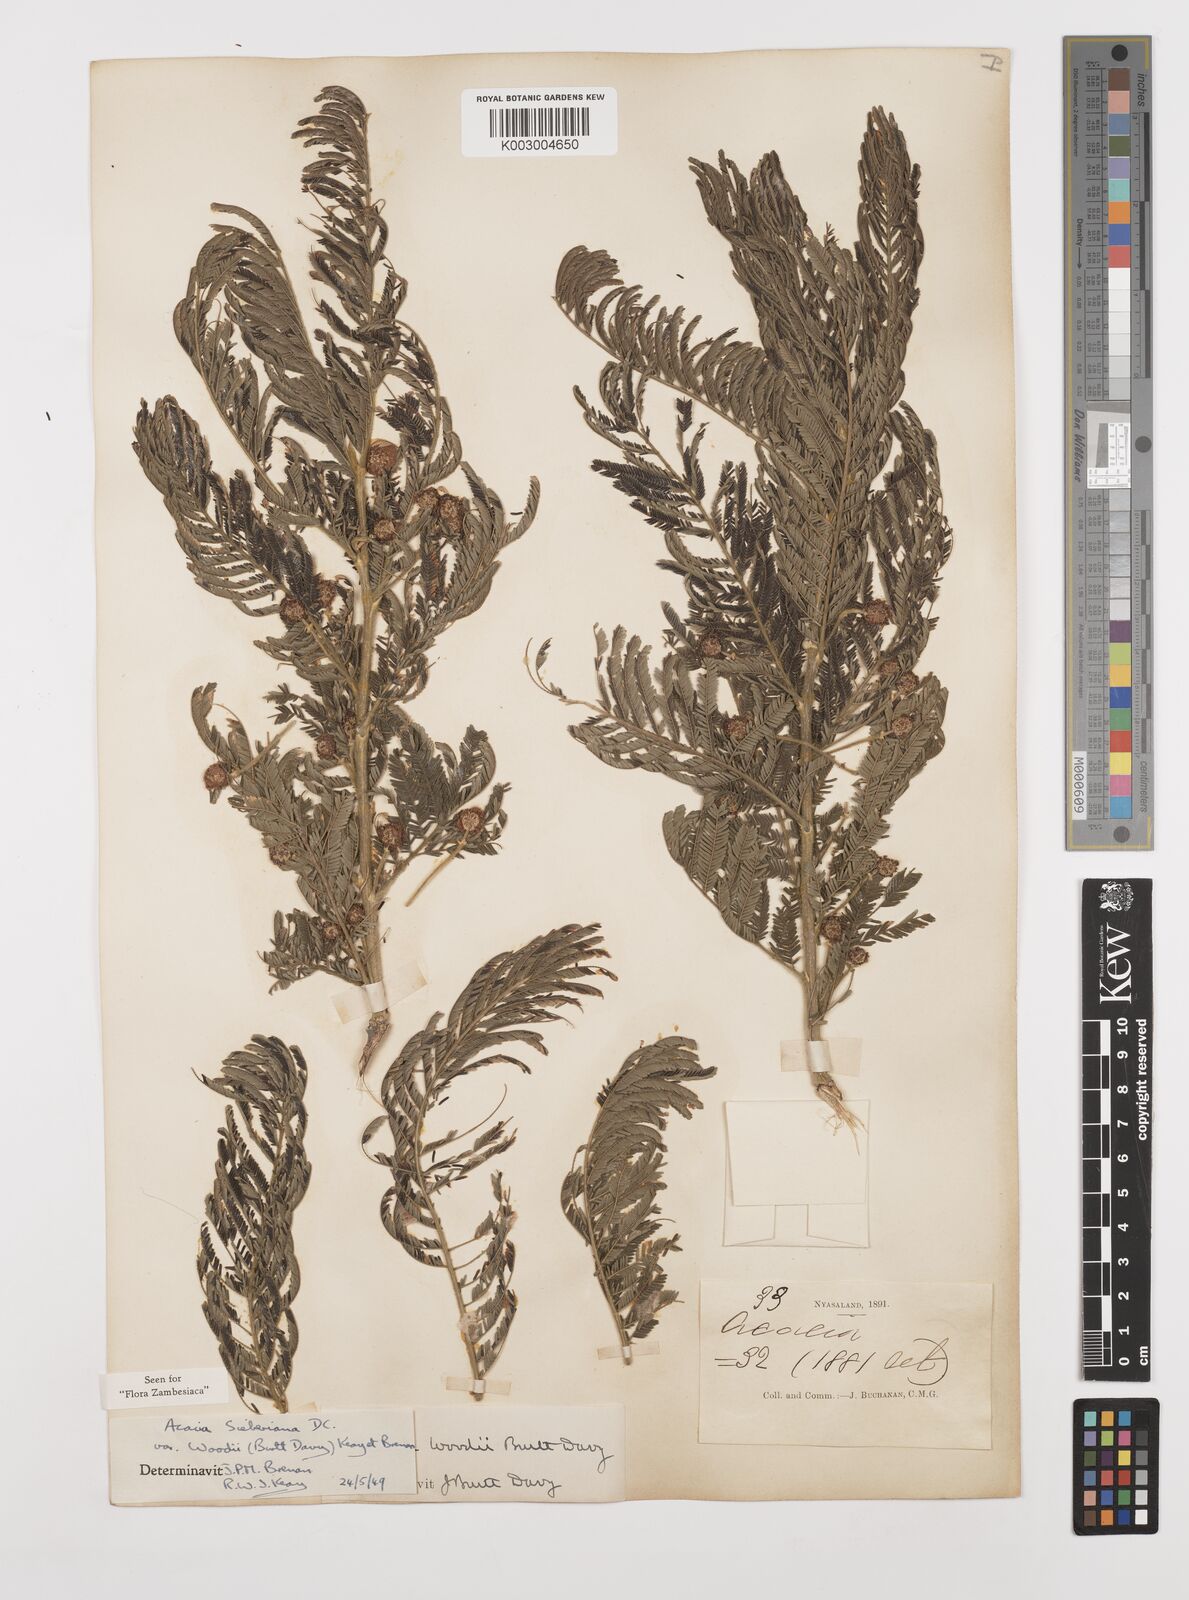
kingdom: Plantae
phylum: Tracheophyta
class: Magnoliopsida
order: Fabales
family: Fabaceae
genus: Vachellia
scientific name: Vachellia sieberiana
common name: Flat-topped thorn
